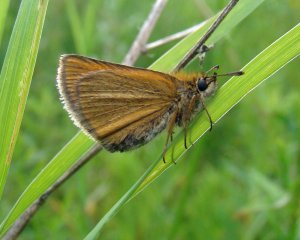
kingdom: Animalia
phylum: Arthropoda
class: Insecta
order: Lepidoptera
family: Hesperiidae
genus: Thymelicus
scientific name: Thymelicus lineola
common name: European Skipper
